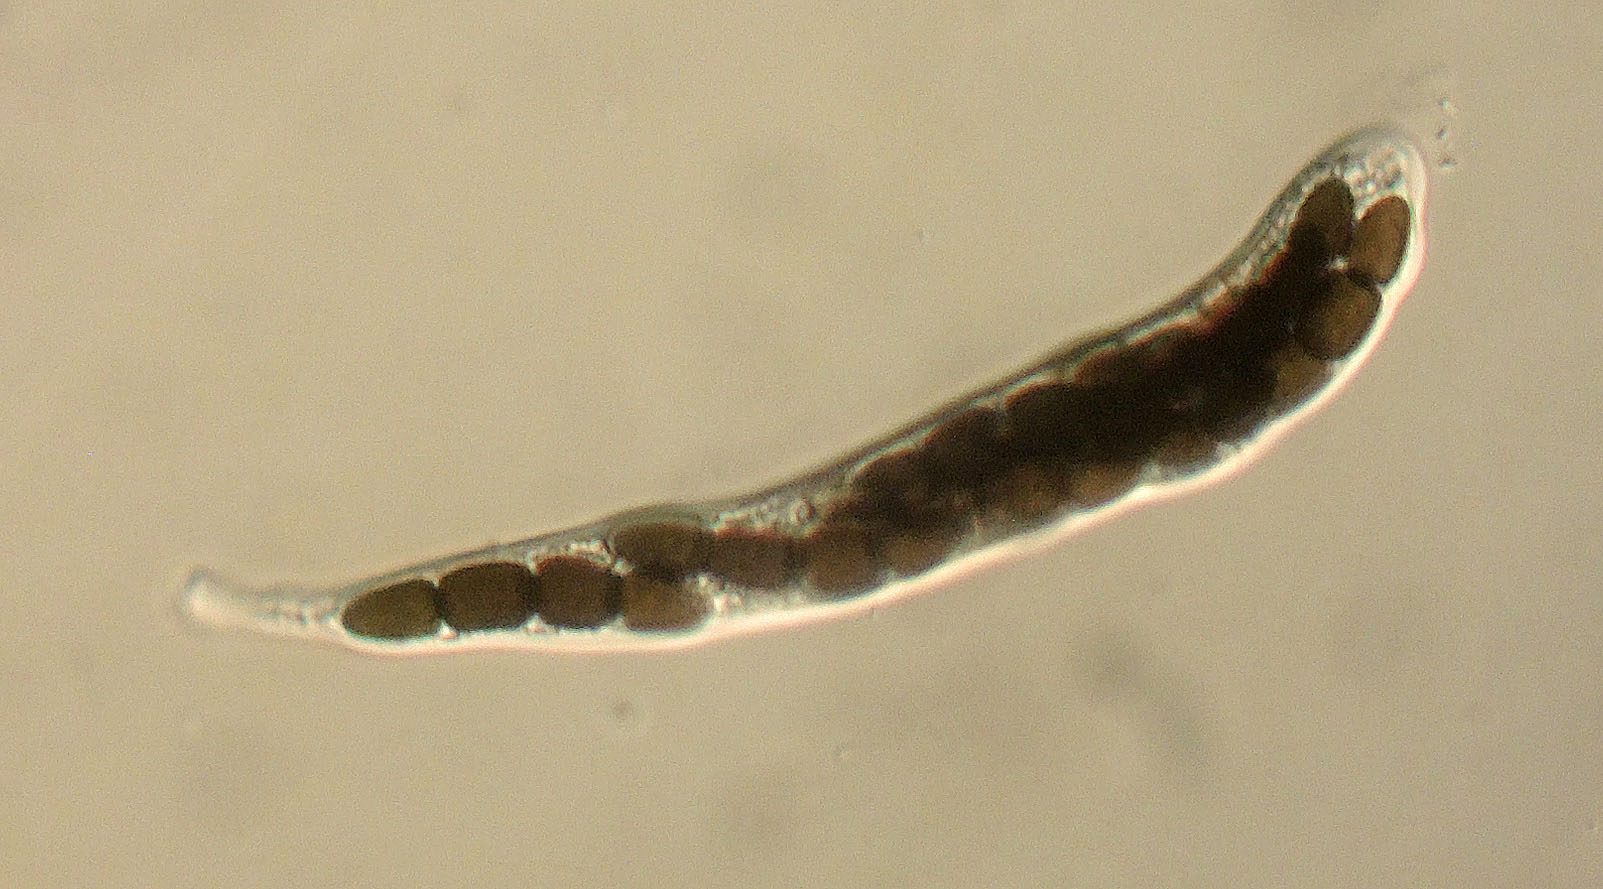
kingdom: Fungi
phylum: Ascomycota
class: Dothideomycetes
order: Pleosporales
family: Sporormiaceae
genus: Preussia
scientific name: Preussia dubia
